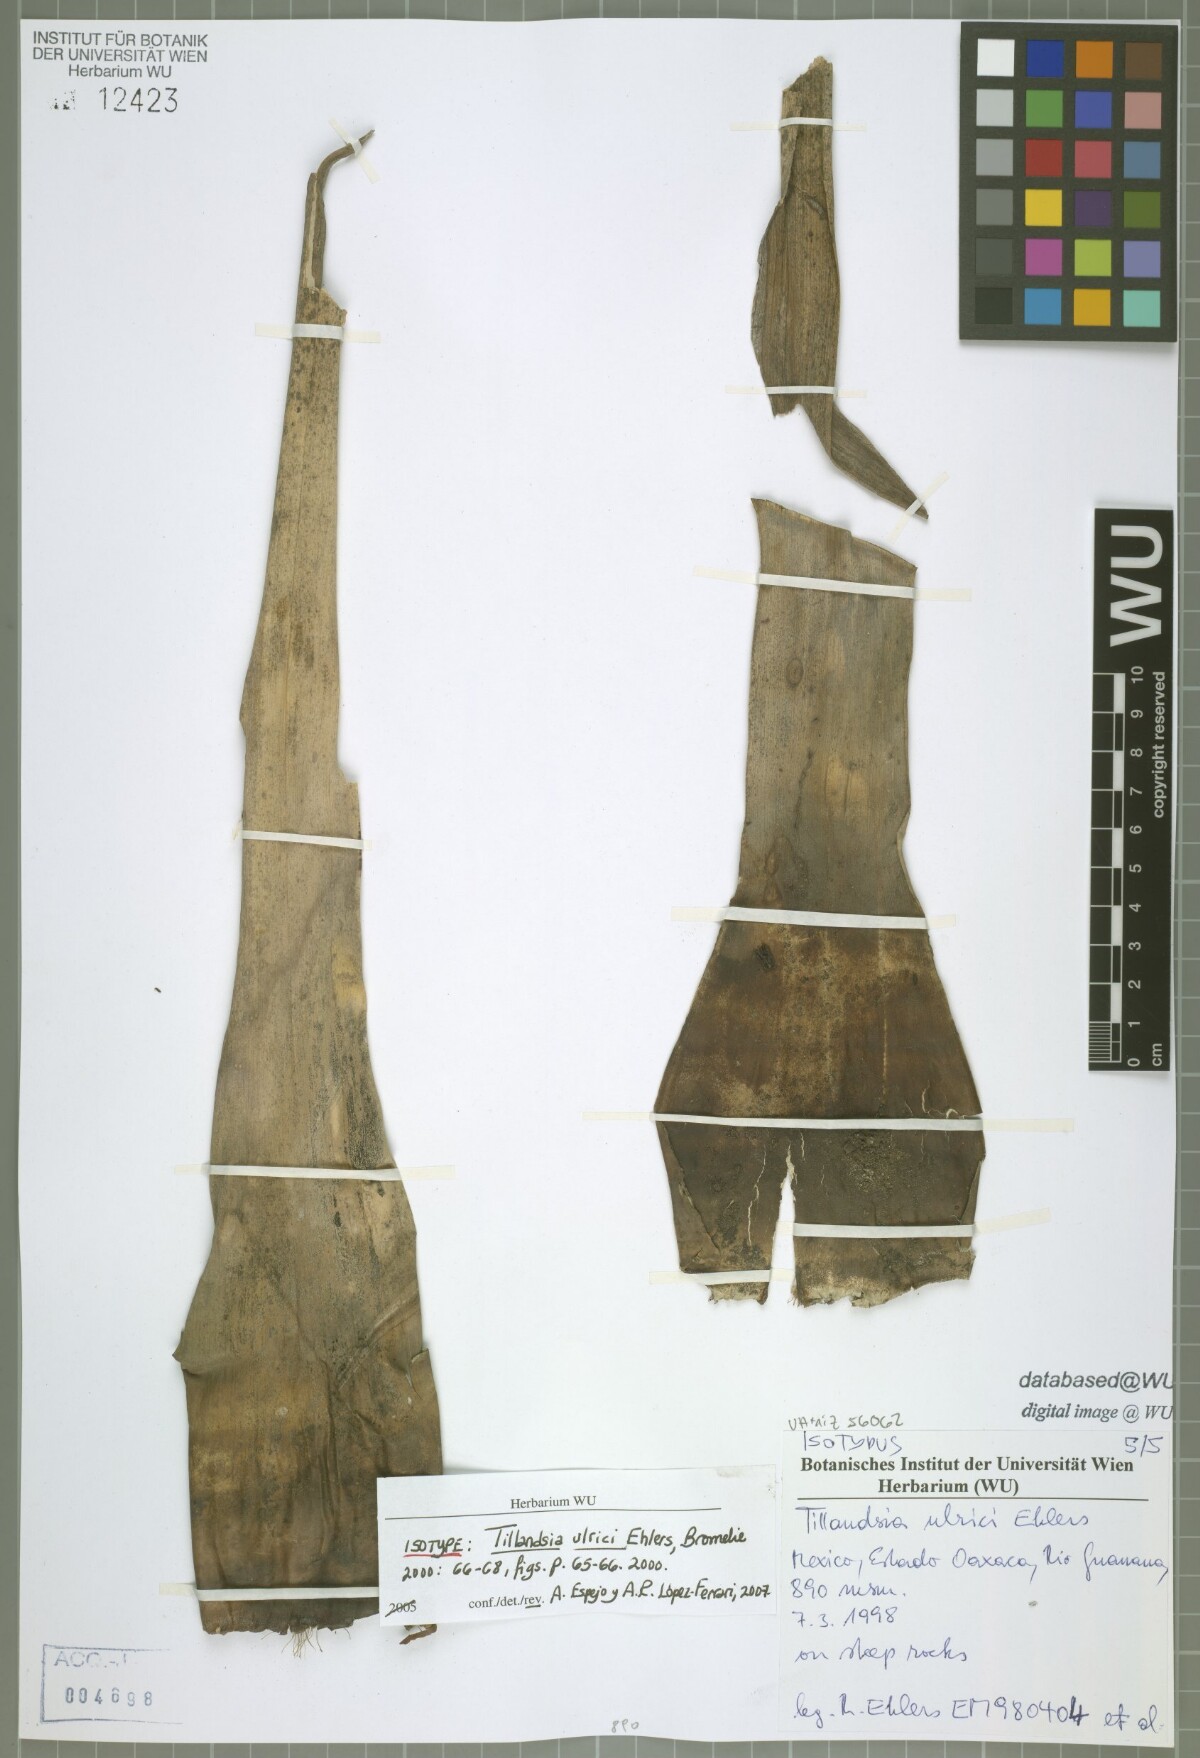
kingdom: Plantae
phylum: Tracheophyta
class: Liliopsida
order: Poales
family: Bromeliaceae
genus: Tillandsia
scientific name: Tillandsia ulrici
